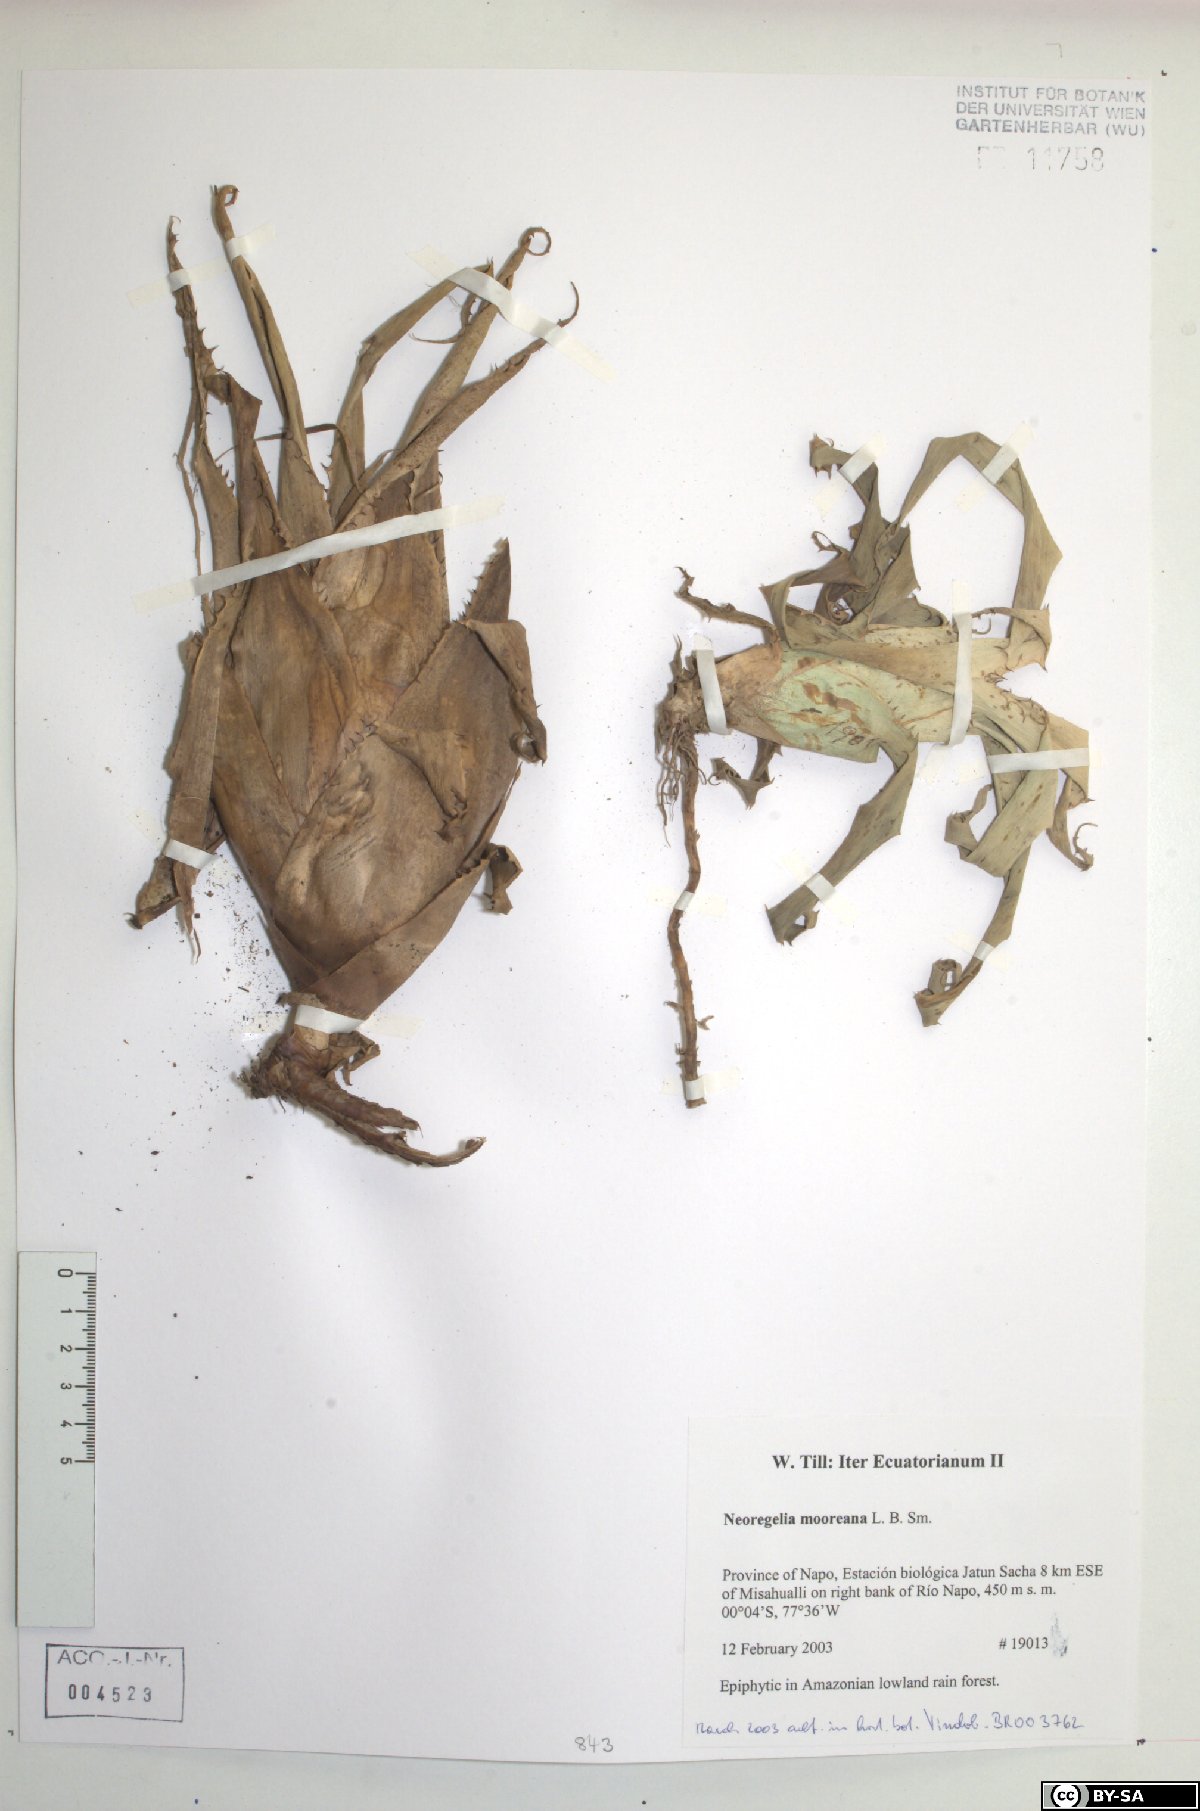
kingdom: Plantae
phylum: Tracheophyta
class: Liliopsida
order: Poales
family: Bromeliaceae
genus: Hylaeaicum
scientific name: Hylaeaicum mooreanum
